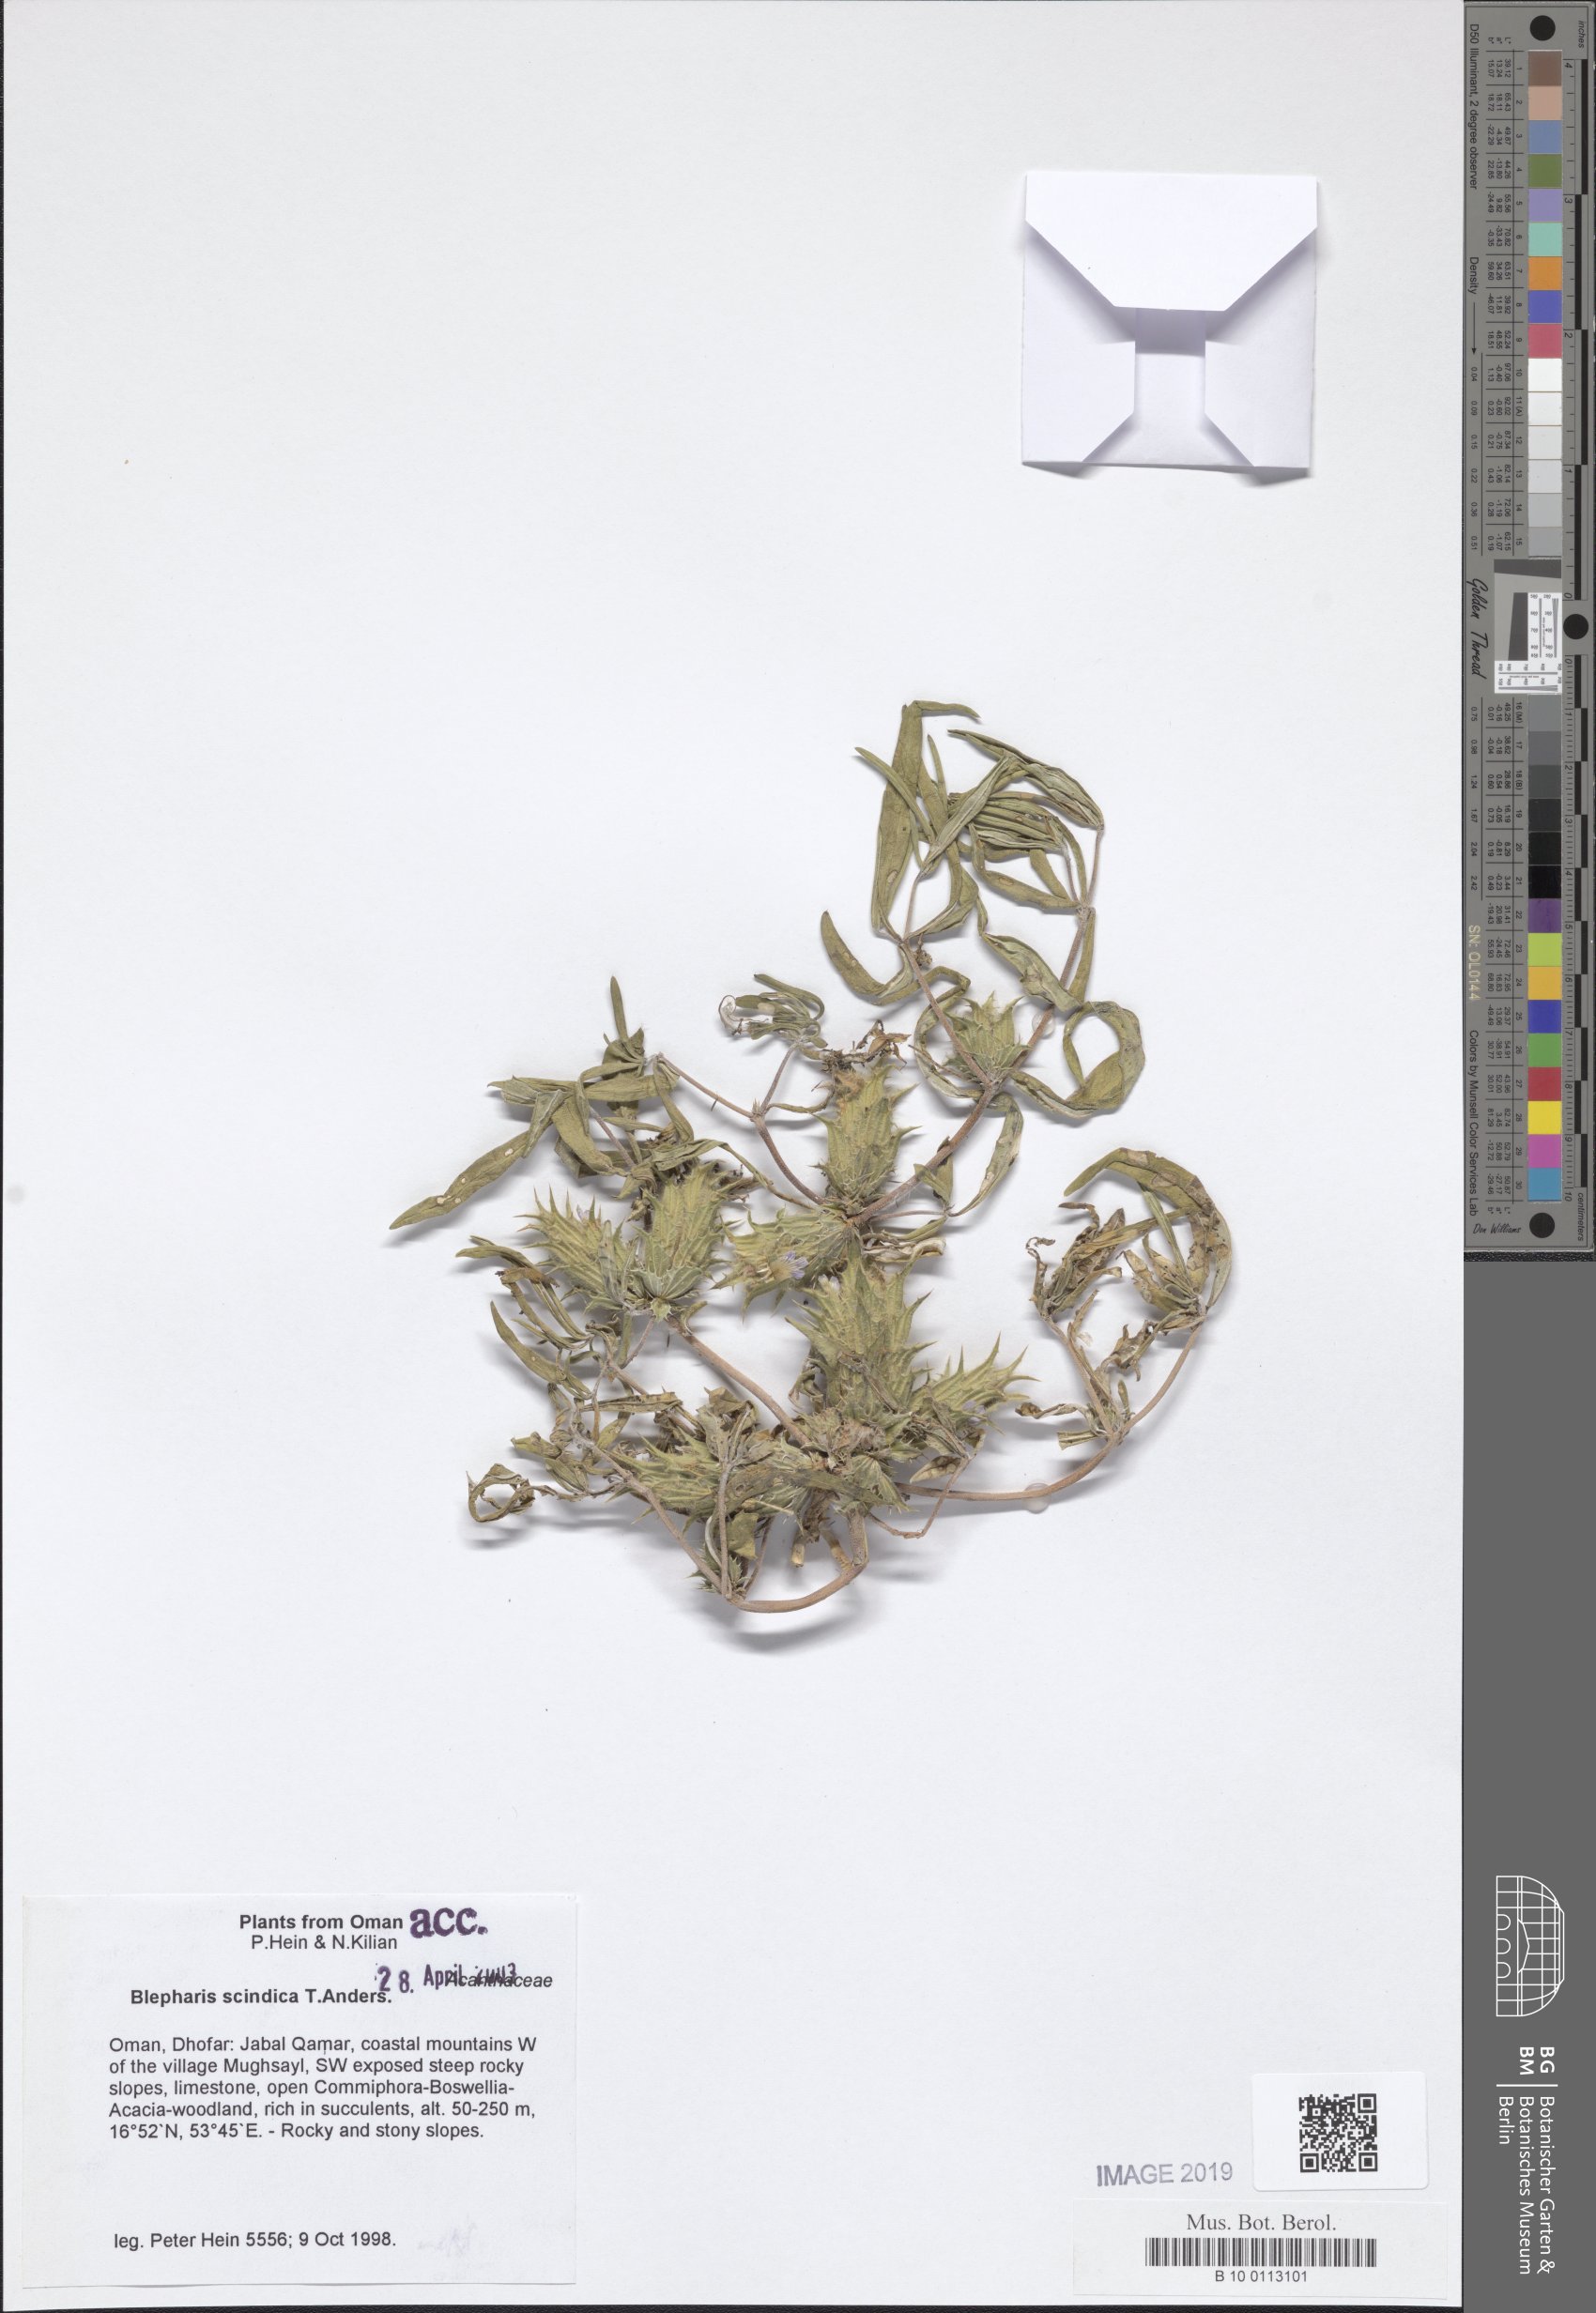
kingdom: Plantae
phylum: Tracheophyta
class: Magnoliopsida
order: Lamiales
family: Acanthaceae
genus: Blepharis
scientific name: Blepharis scindica
